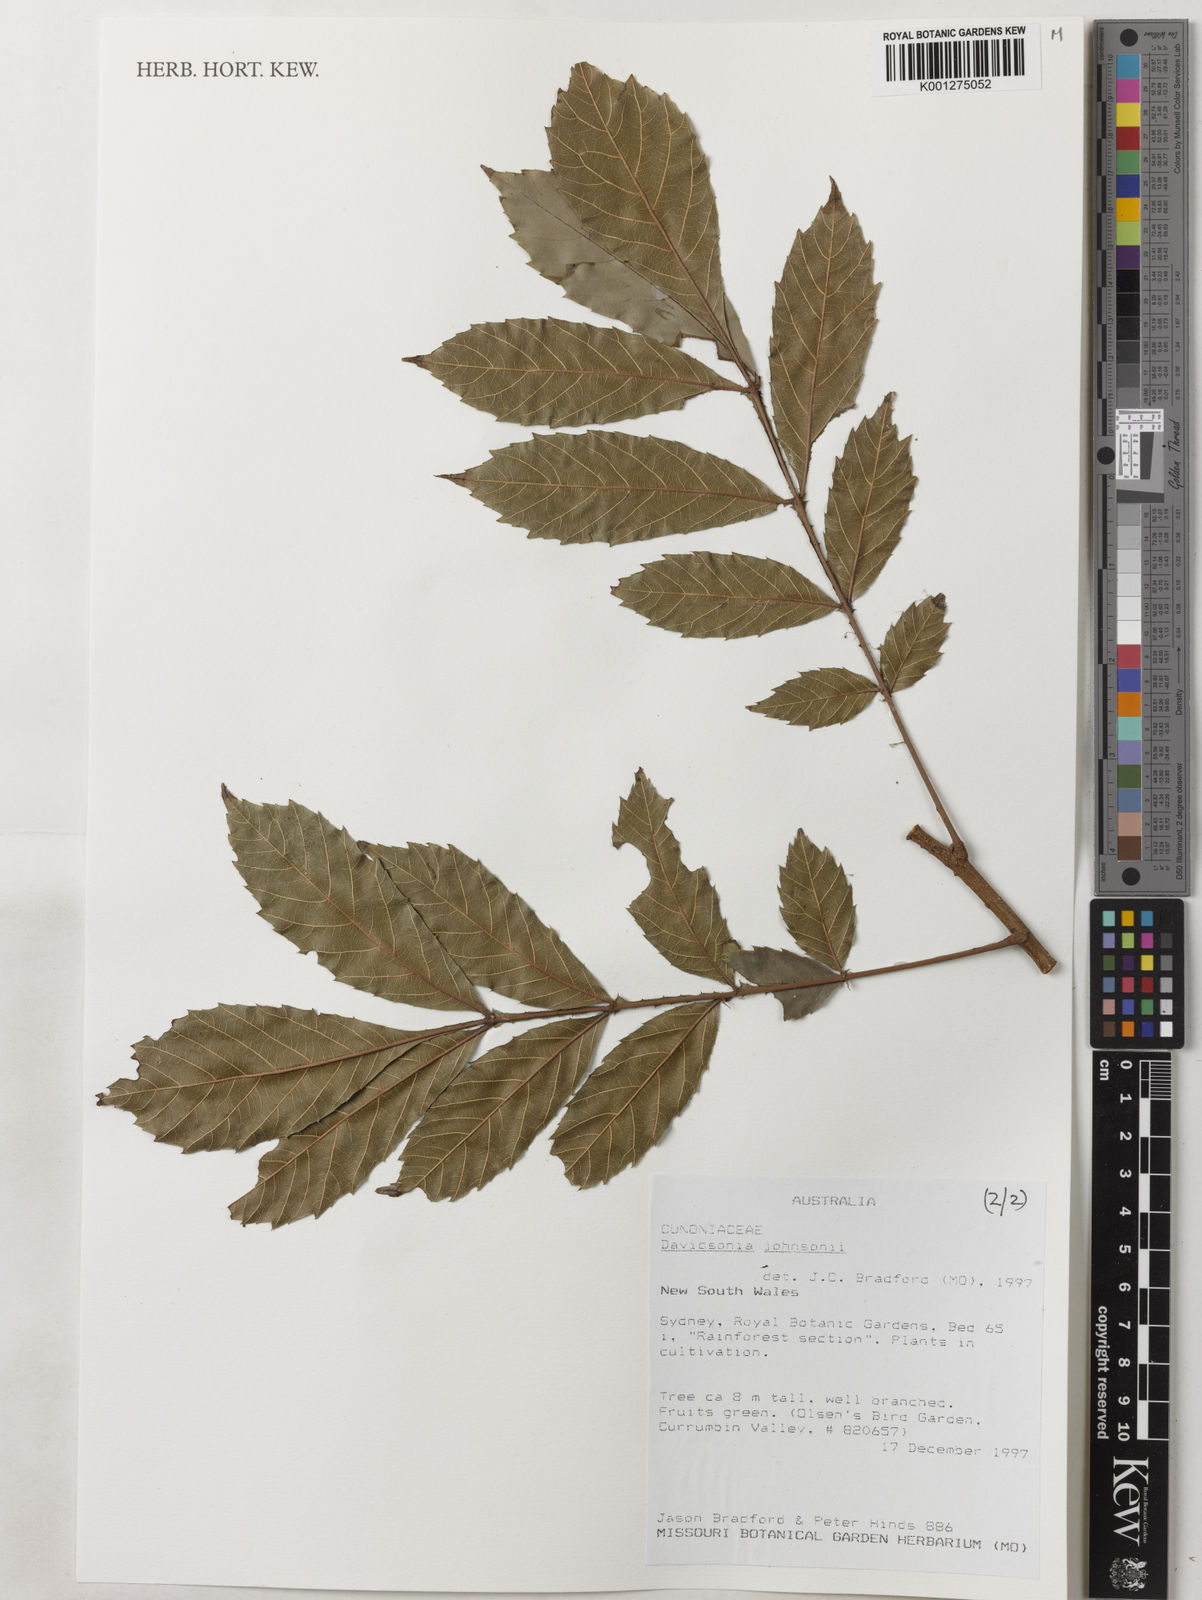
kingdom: Plantae
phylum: Tracheophyta
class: Magnoliopsida
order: Oxalidales
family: Cunoniaceae
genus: Davidsonia
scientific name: Davidsonia johnsonii
